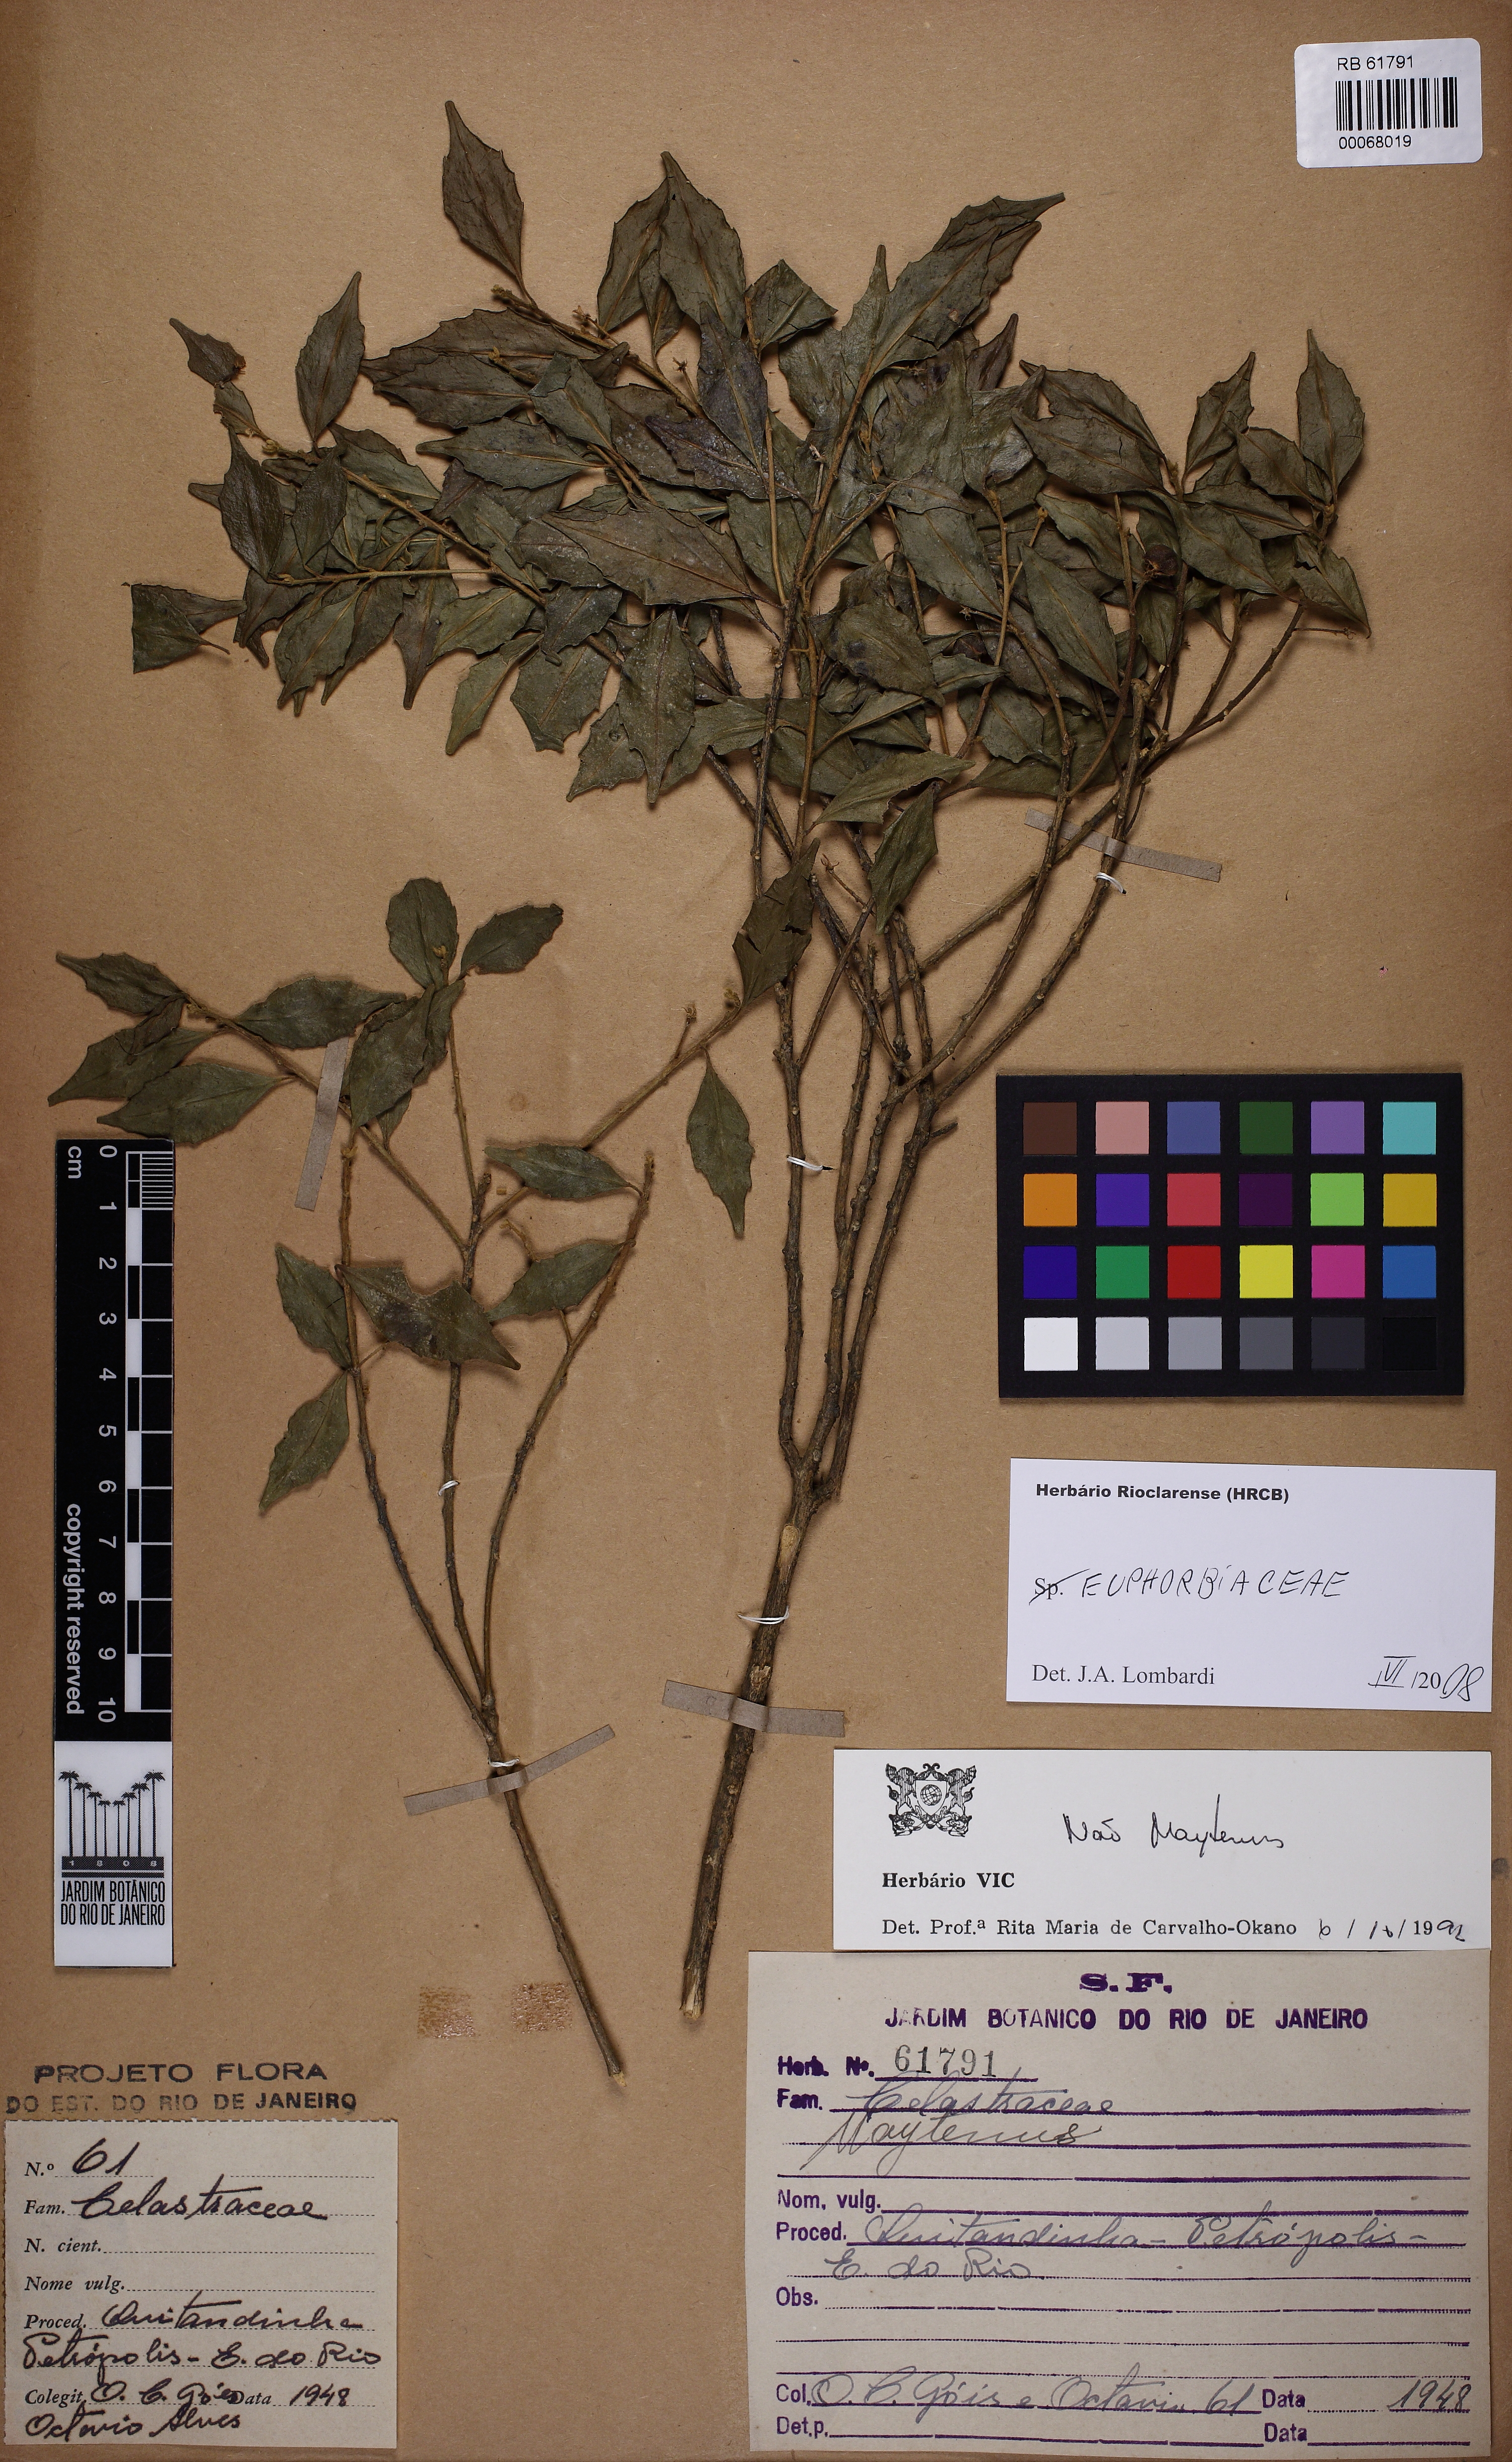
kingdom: Plantae
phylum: Tracheophyta
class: Magnoliopsida
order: Malpighiales
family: Euphorbiaceae
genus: Tetrorchidium
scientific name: Tetrorchidium parvulum
